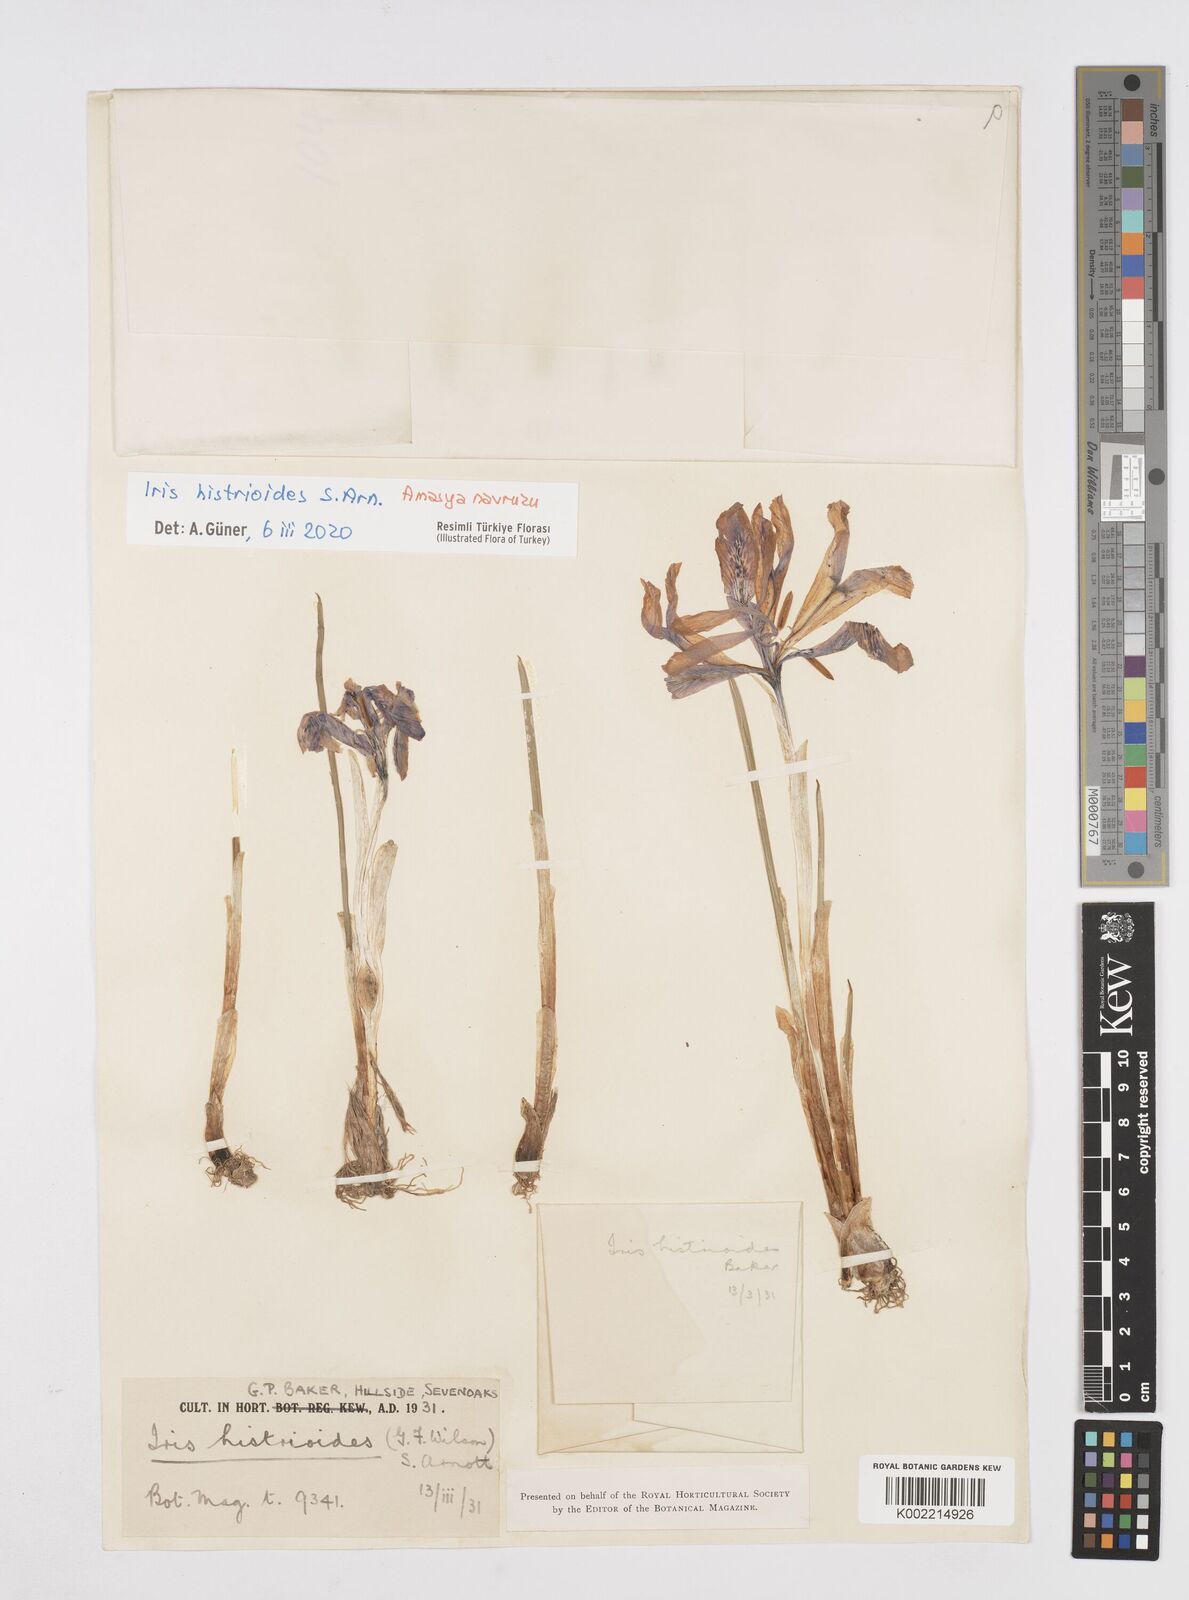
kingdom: Plantae
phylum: Tracheophyta
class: Liliopsida
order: Asparagales
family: Iridaceae
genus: Iris
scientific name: Iris histrioides
